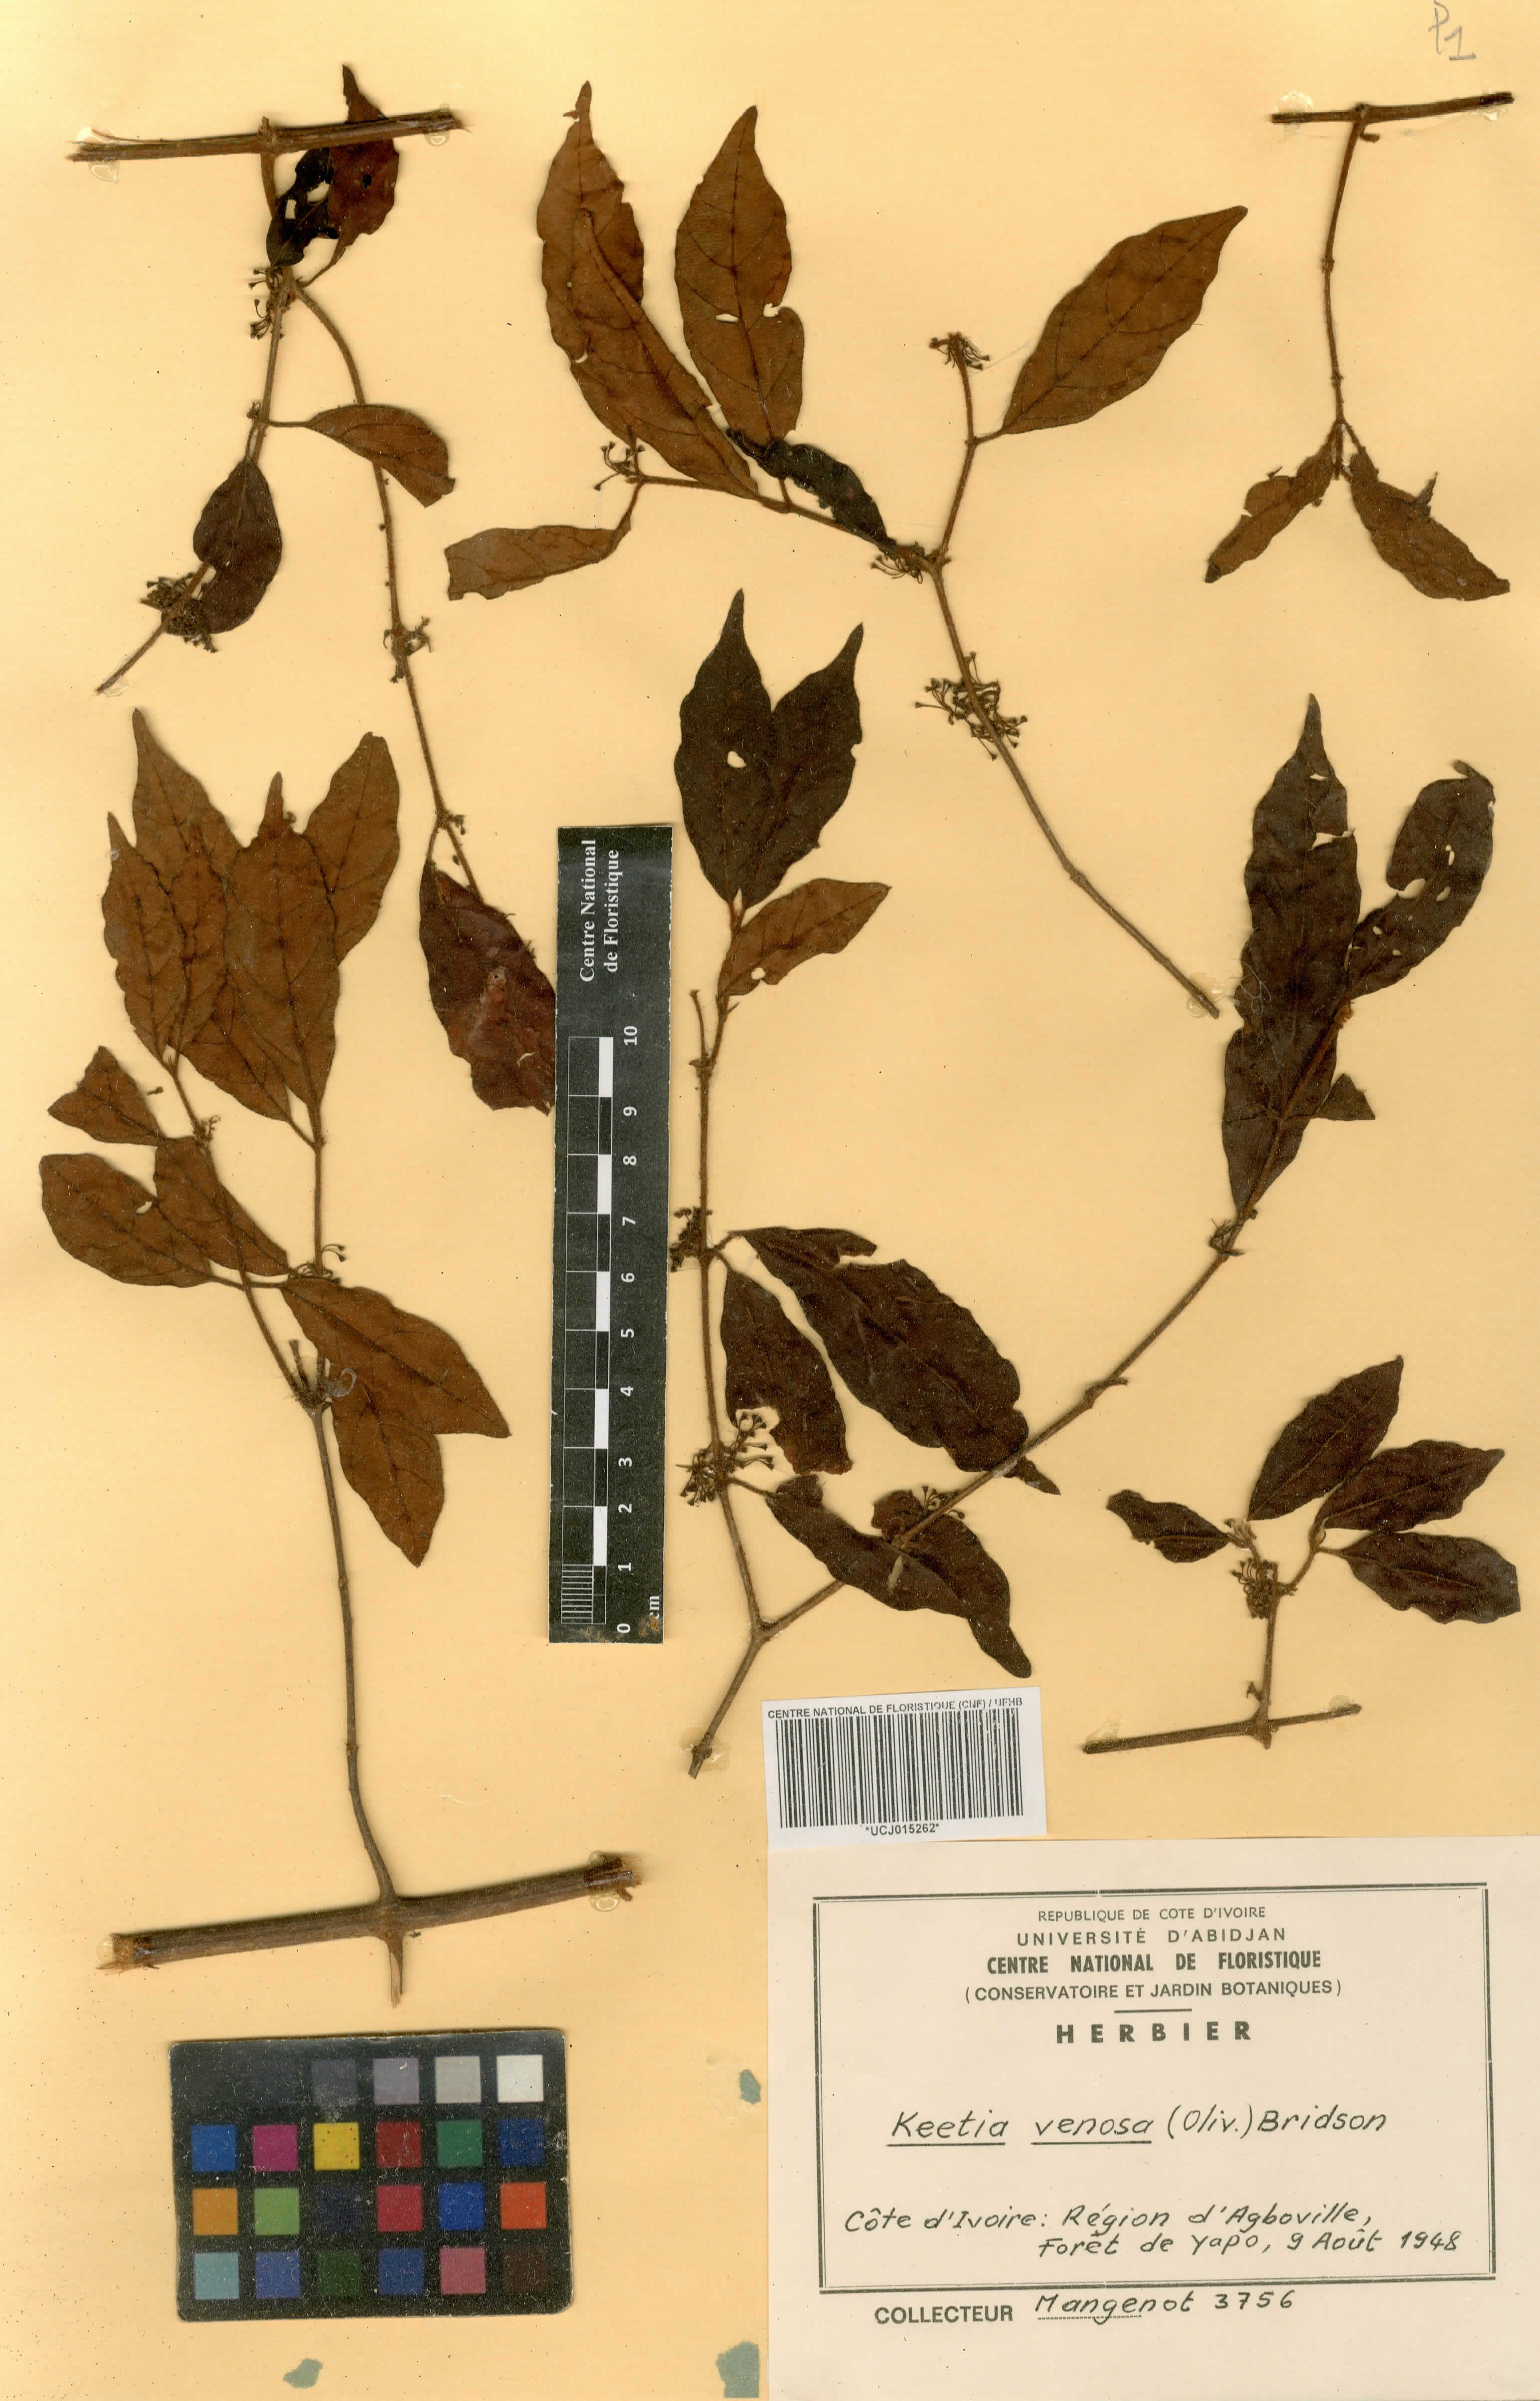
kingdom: Plantae
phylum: Tracheophyta
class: Magnoliopsida
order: Gentianales
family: Rubiaceae
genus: Keetia
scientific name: Keetia venosa
